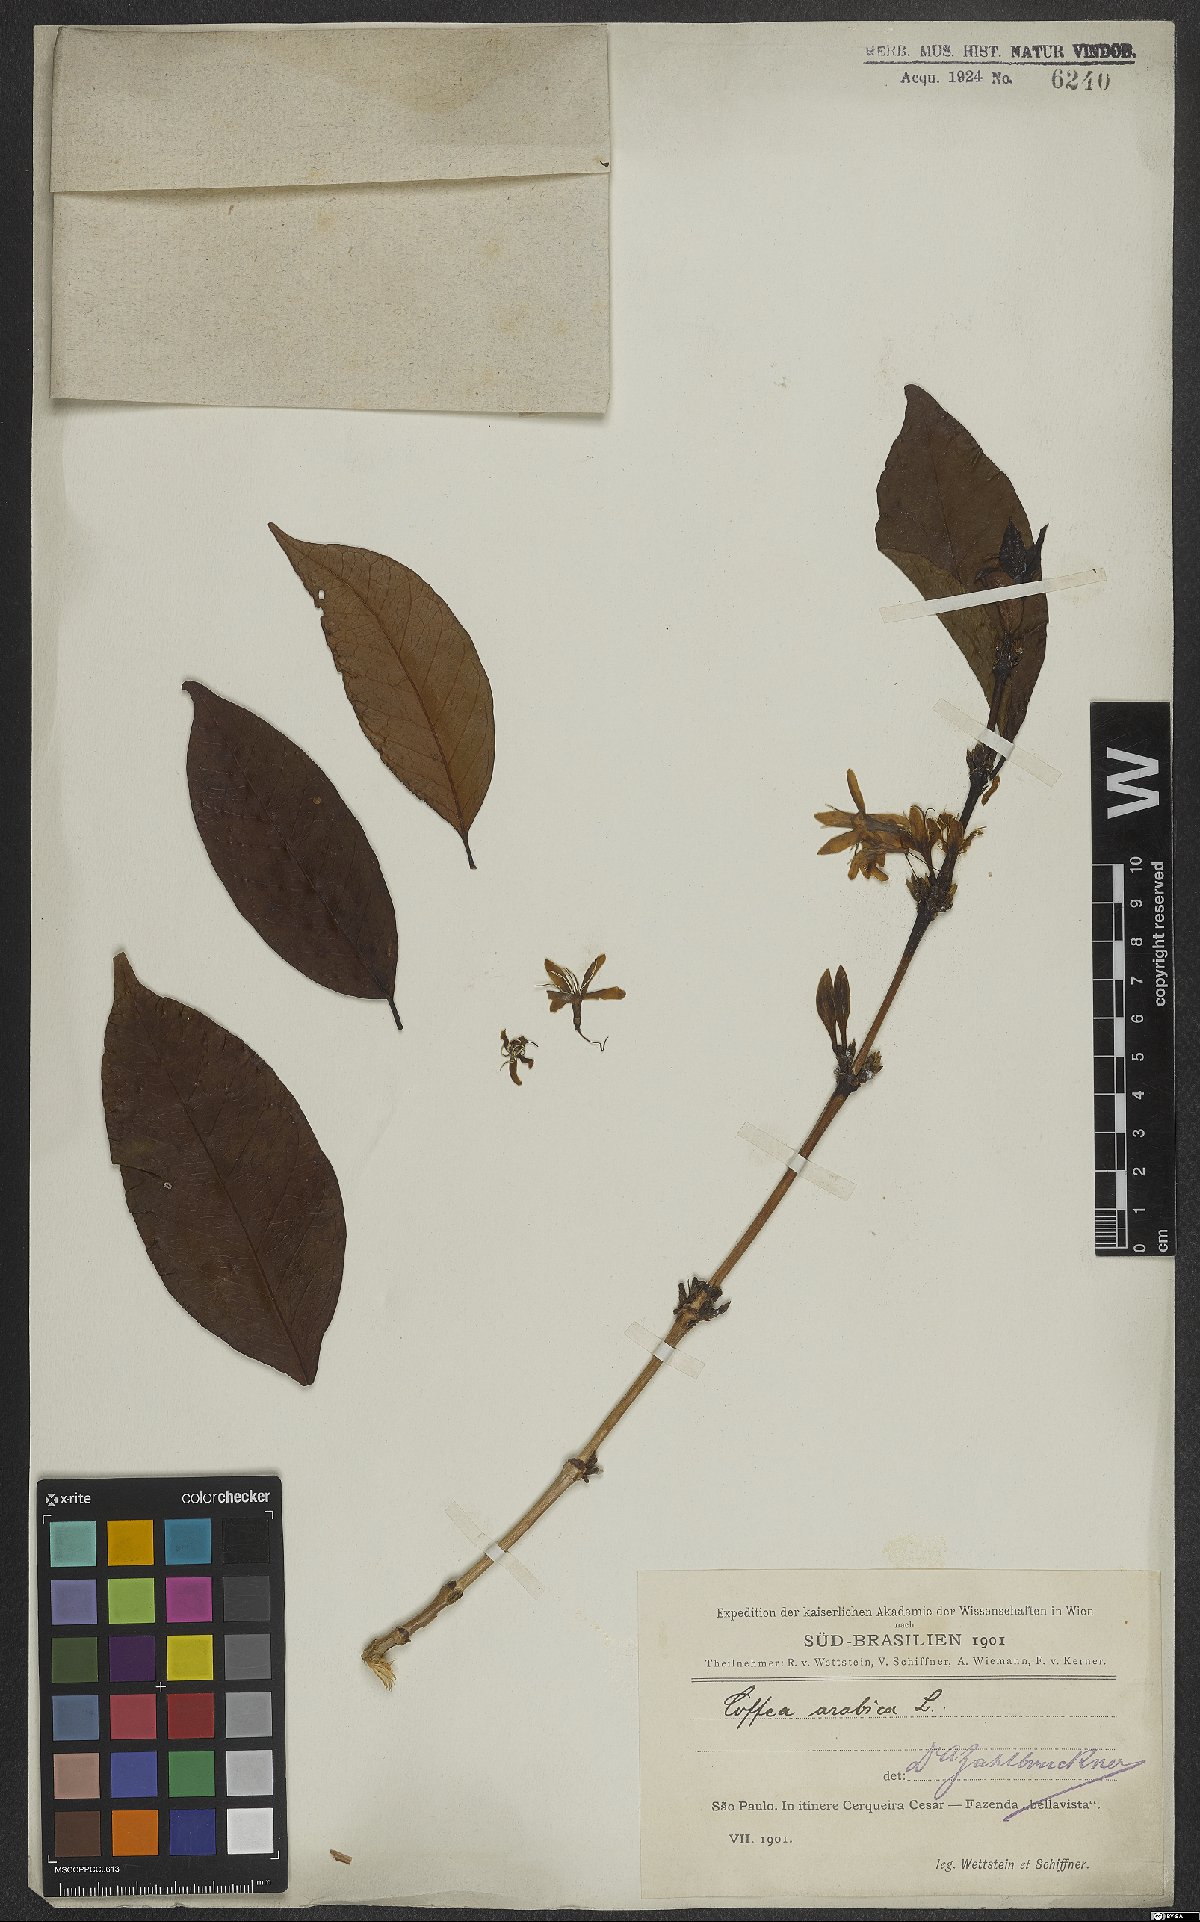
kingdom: Plantae
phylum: Tracheophyta
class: Magnoliopsida
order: Gentianales
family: Rubiaceae
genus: Coffea
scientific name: Coffea arabica
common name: Coffee
